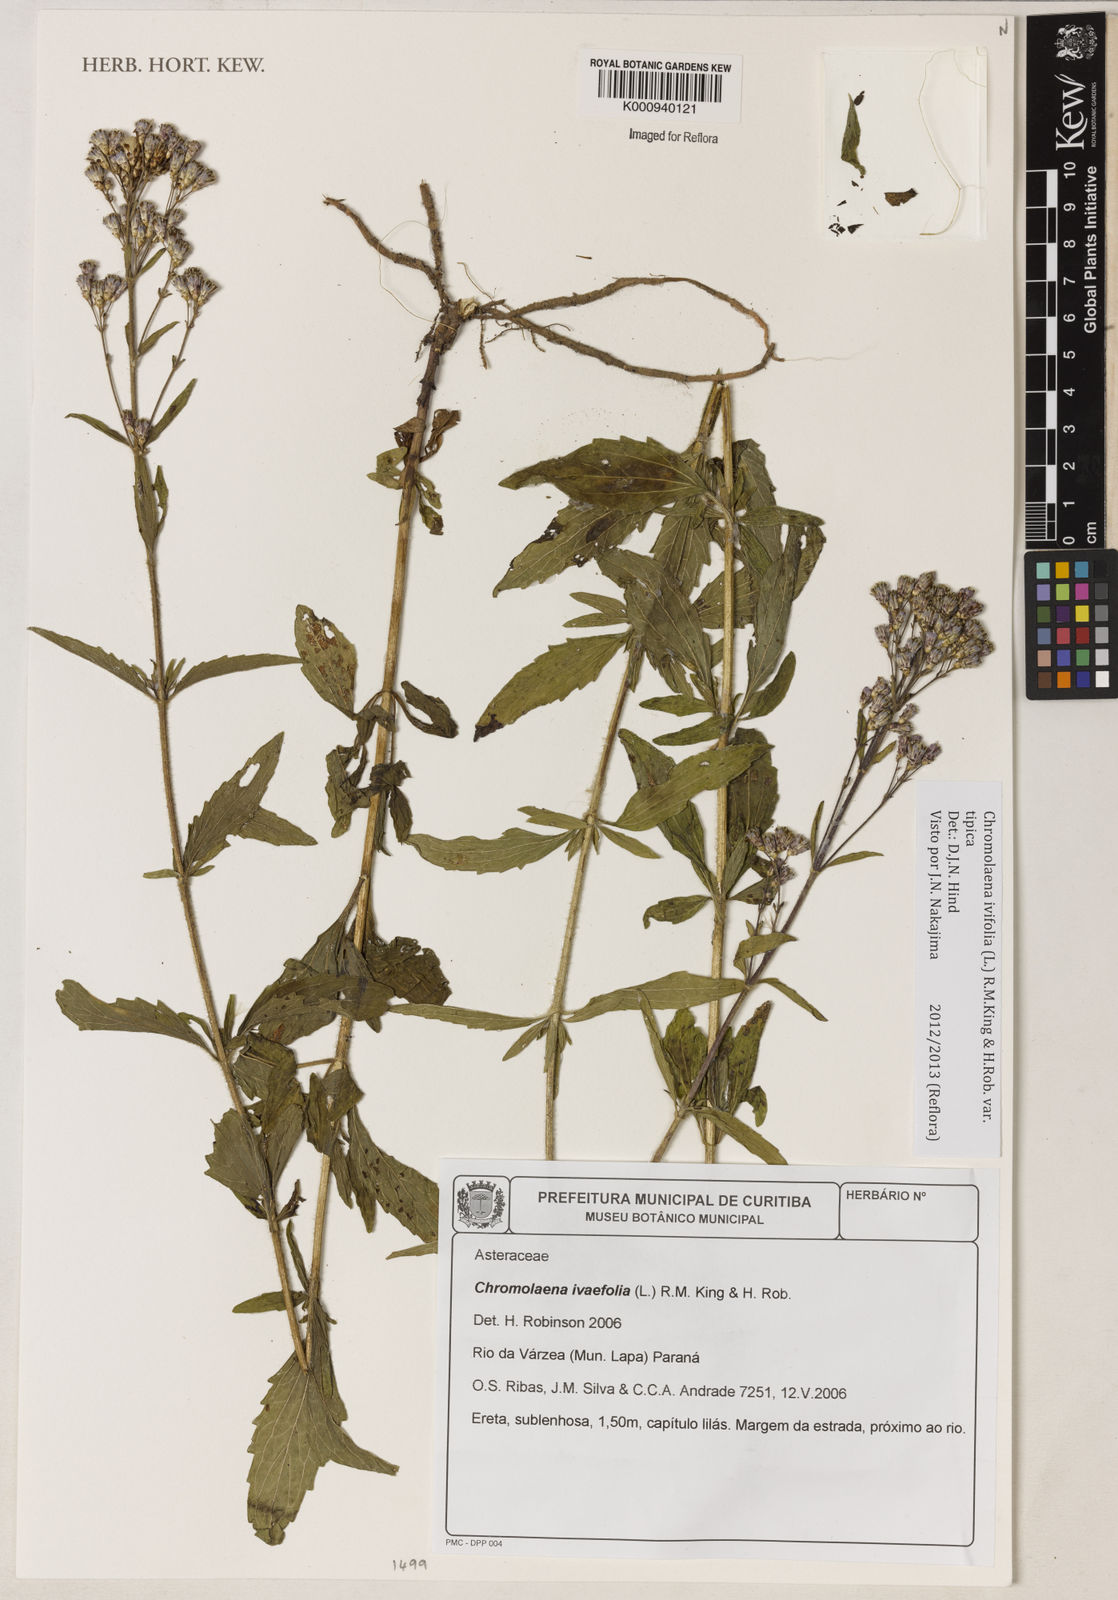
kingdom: Plantae
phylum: Tracheophyta
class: Magnoliopsida
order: Asterales
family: Asteraceae
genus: Chromolaena
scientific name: Chromolaena ivifolia
